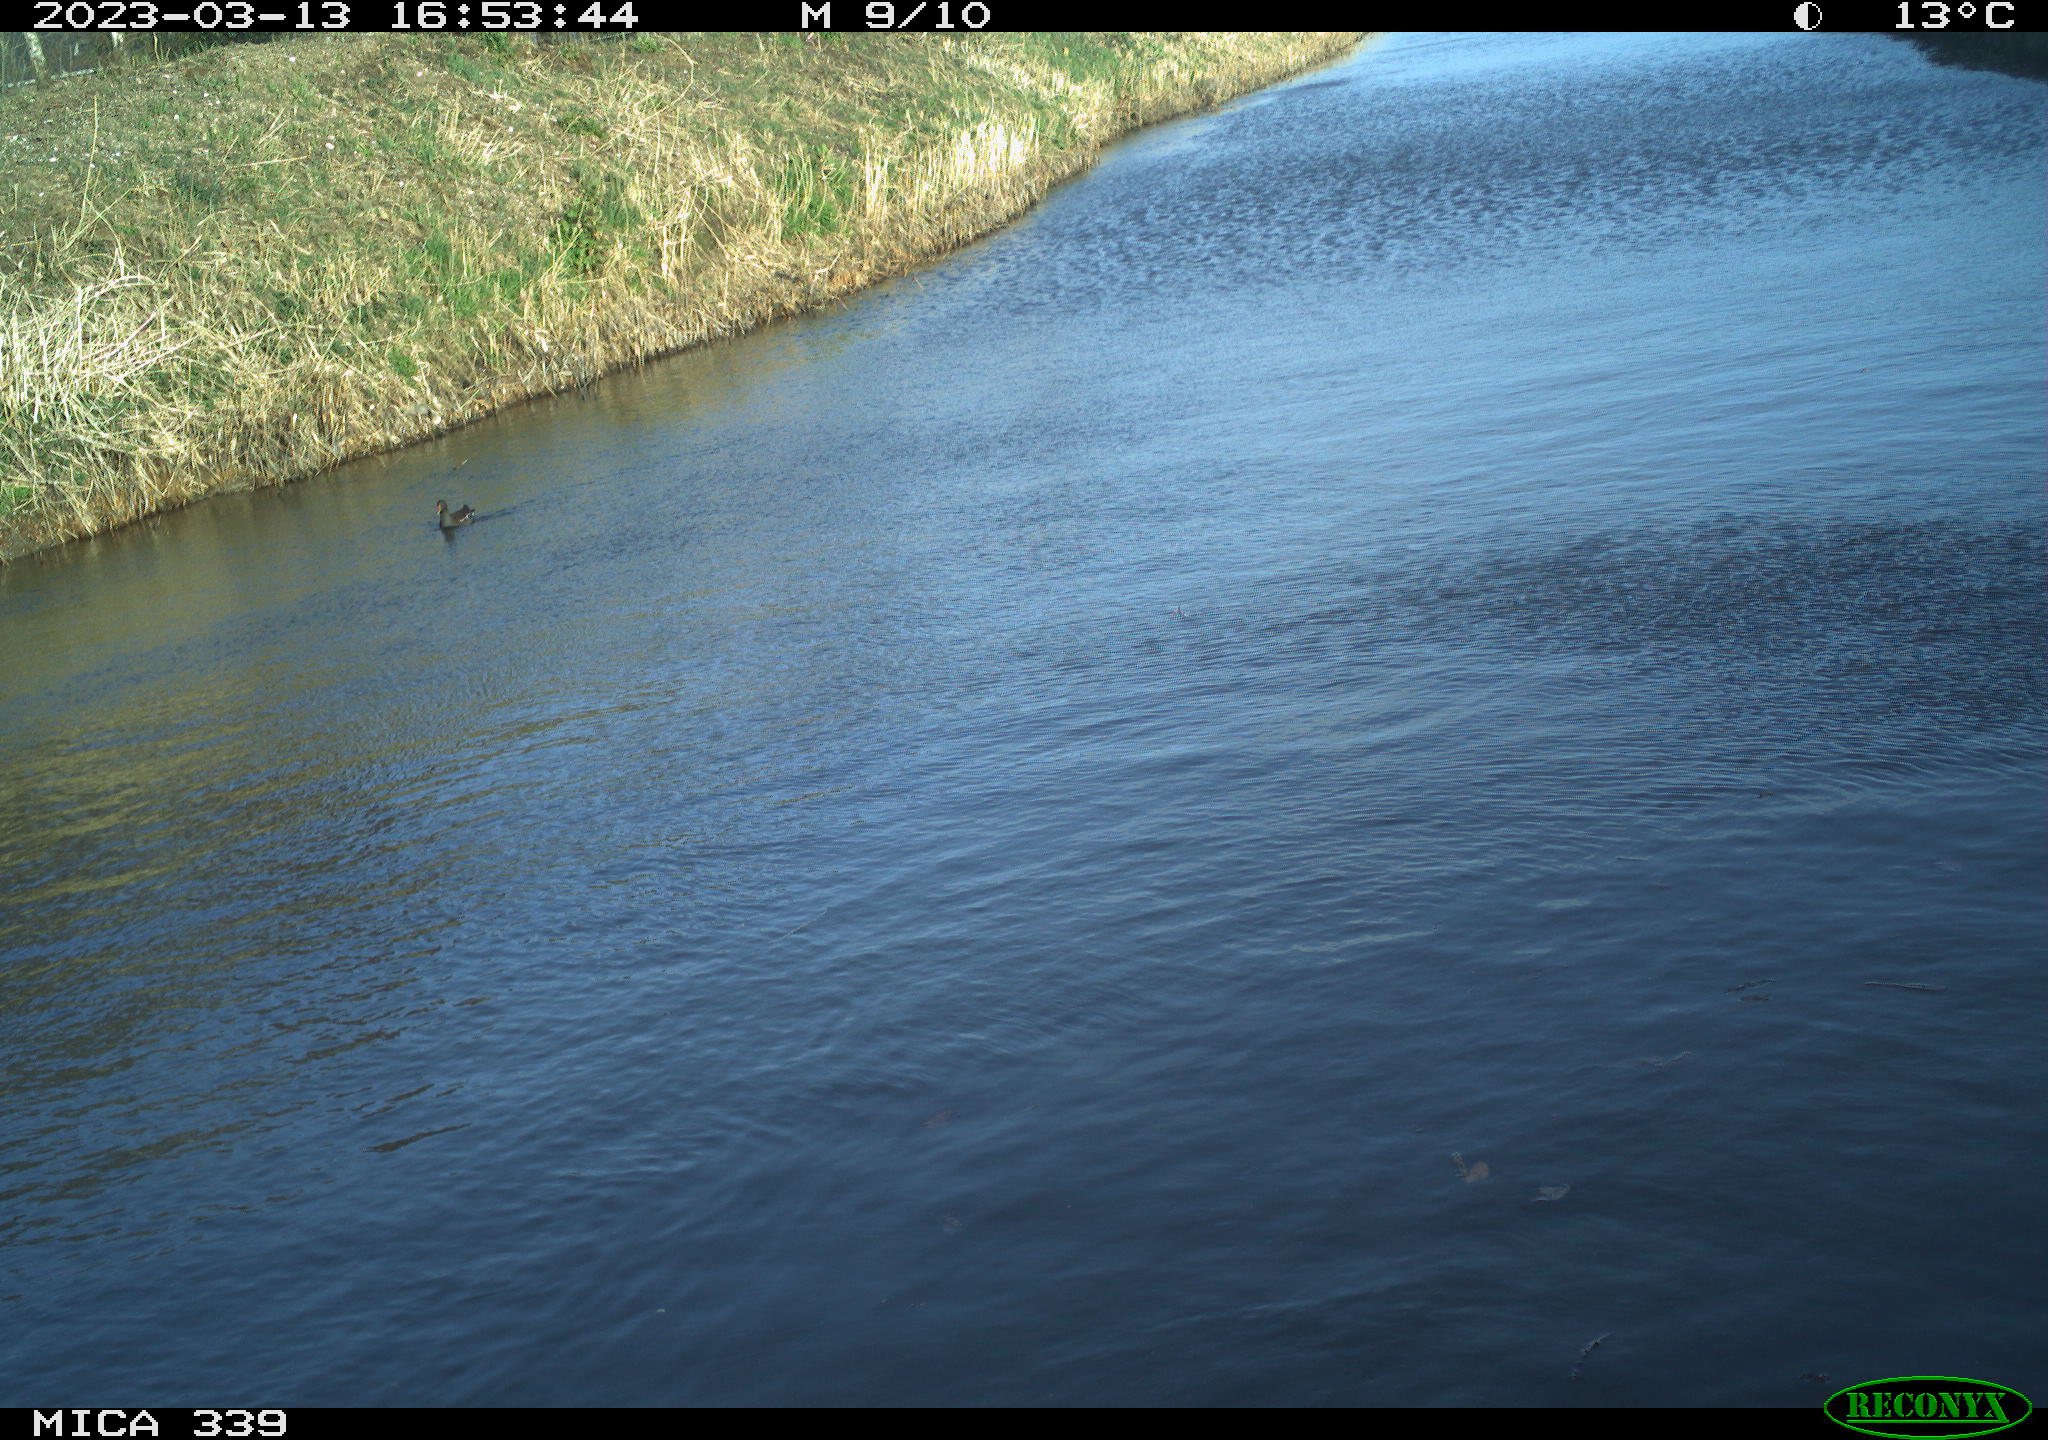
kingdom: Animalia
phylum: Chordata
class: Aves
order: Gruiformes
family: Rallidae
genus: Gallinula
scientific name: Gallinula chloropus
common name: Common moorhen
